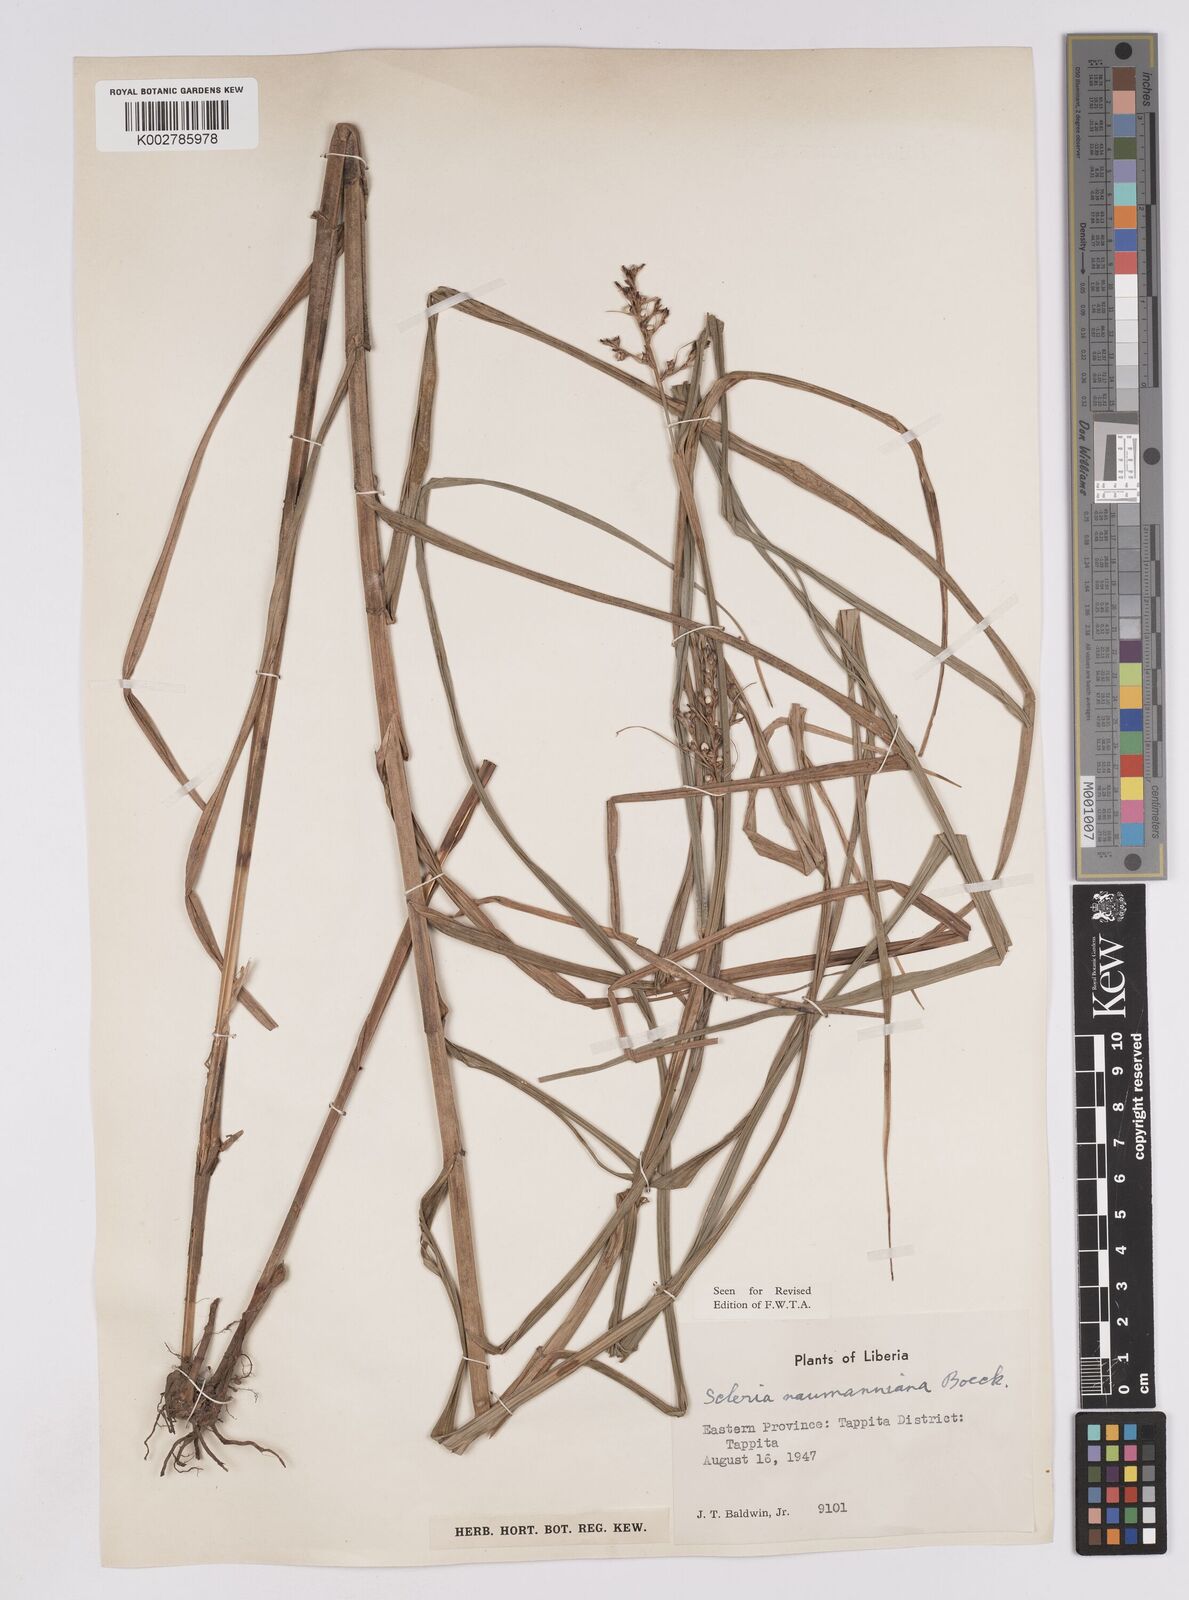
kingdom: Plantae
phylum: Tracheophyta
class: Liliopsida
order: Poales
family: Cyperaceae
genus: Scleria
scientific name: Scleria naumanniana
